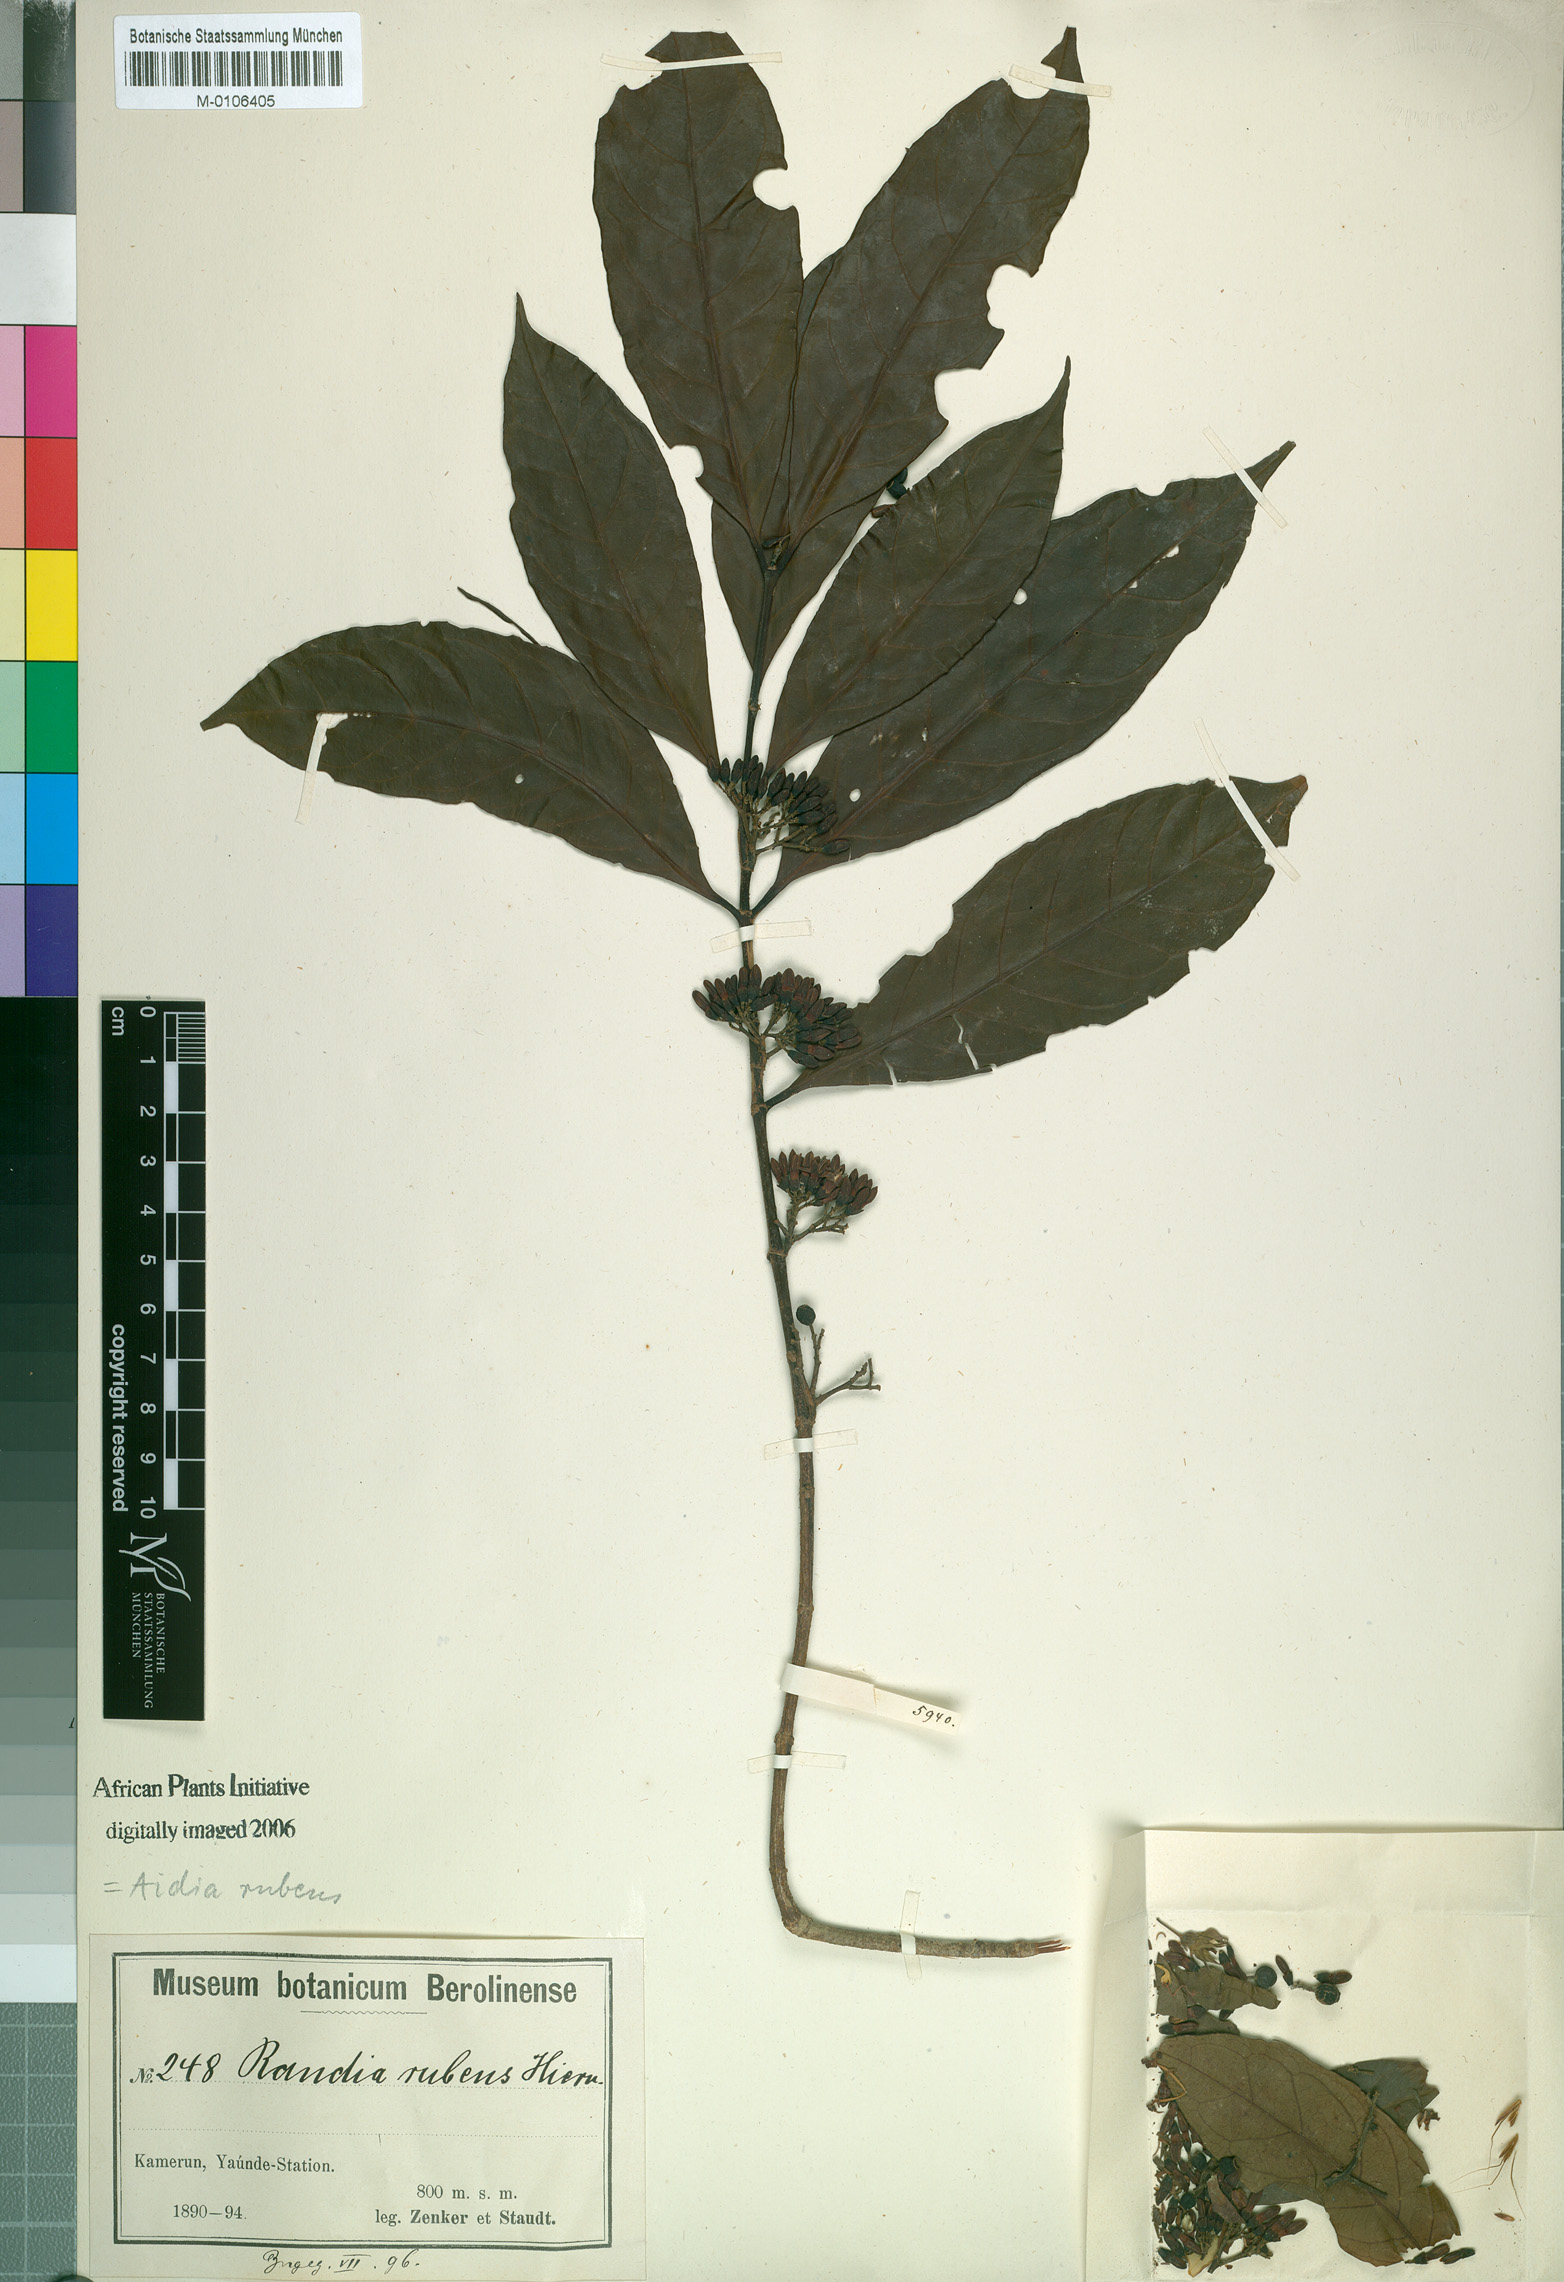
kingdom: Plantae
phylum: Tracheophyta
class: Magnoliopsida
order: Gentianales
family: Rubiaceae
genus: Aidia
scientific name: Aidia rubens
